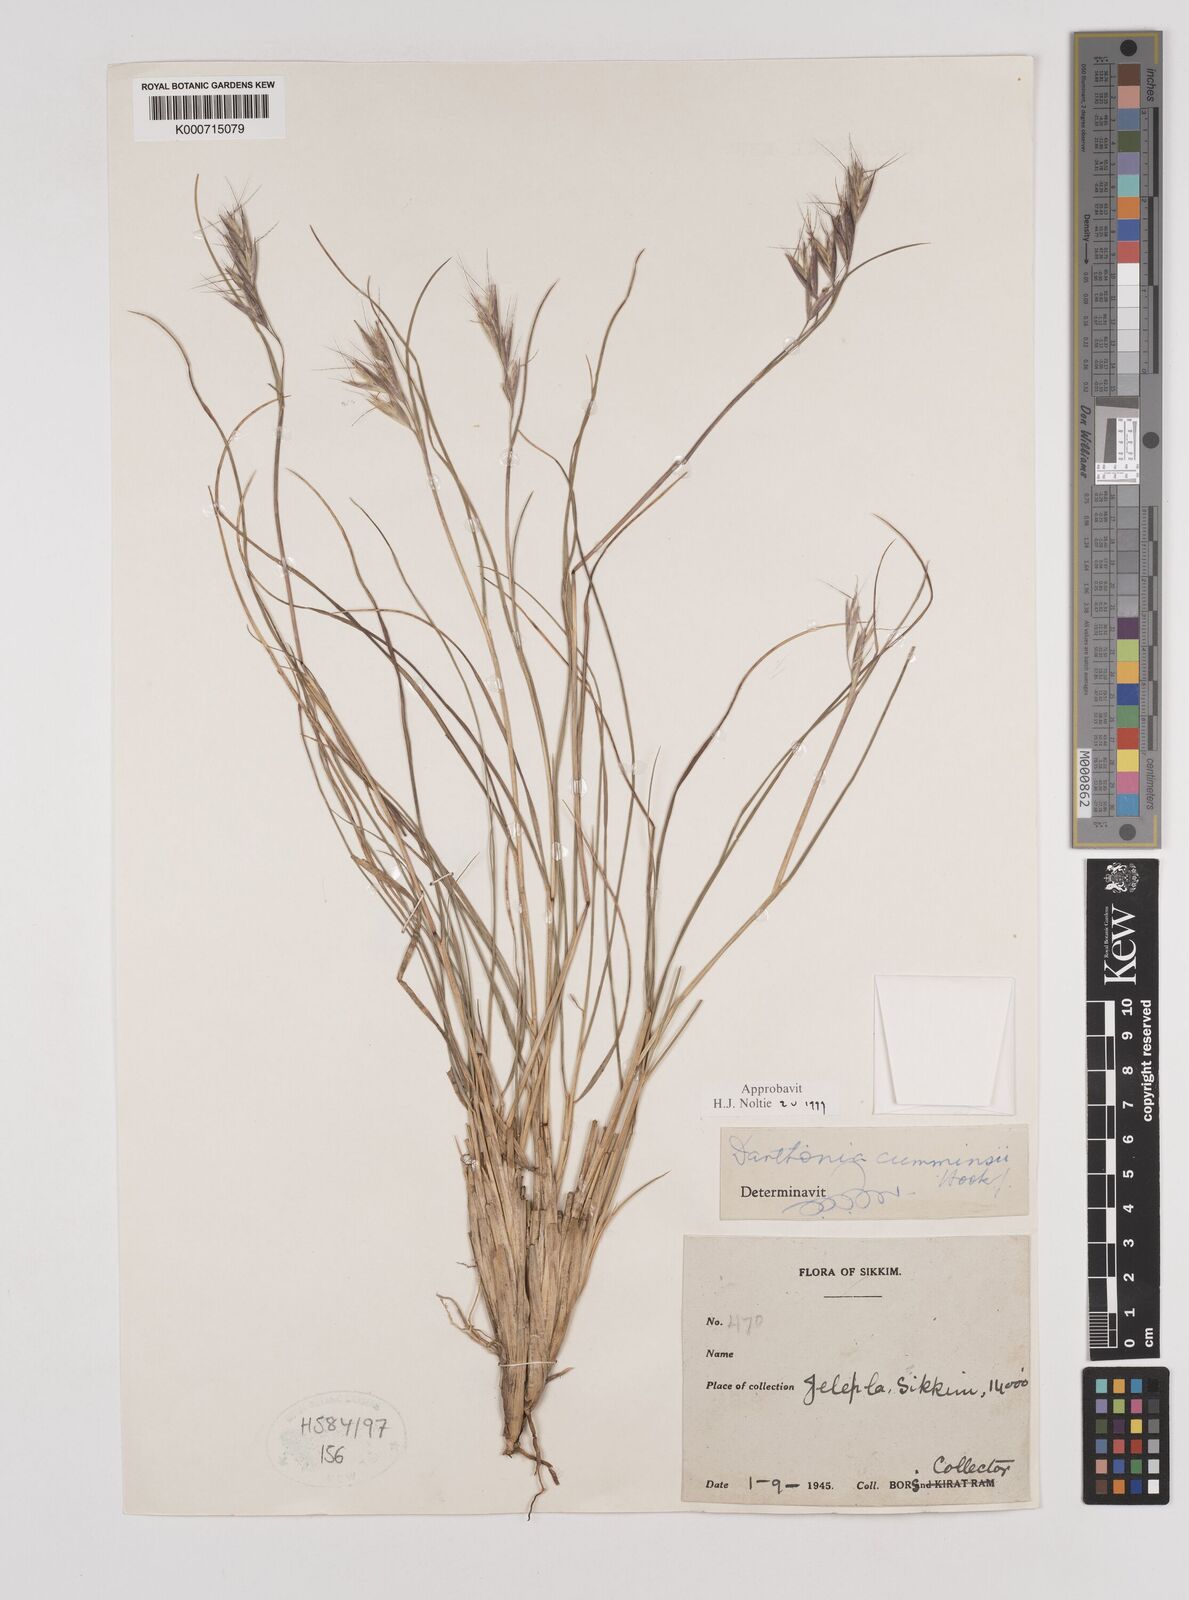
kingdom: Plantae
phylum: Tracheophyta
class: Liliopsida
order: Poales
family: Poaceae
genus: Rytidosperma
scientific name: Rytidosperma
